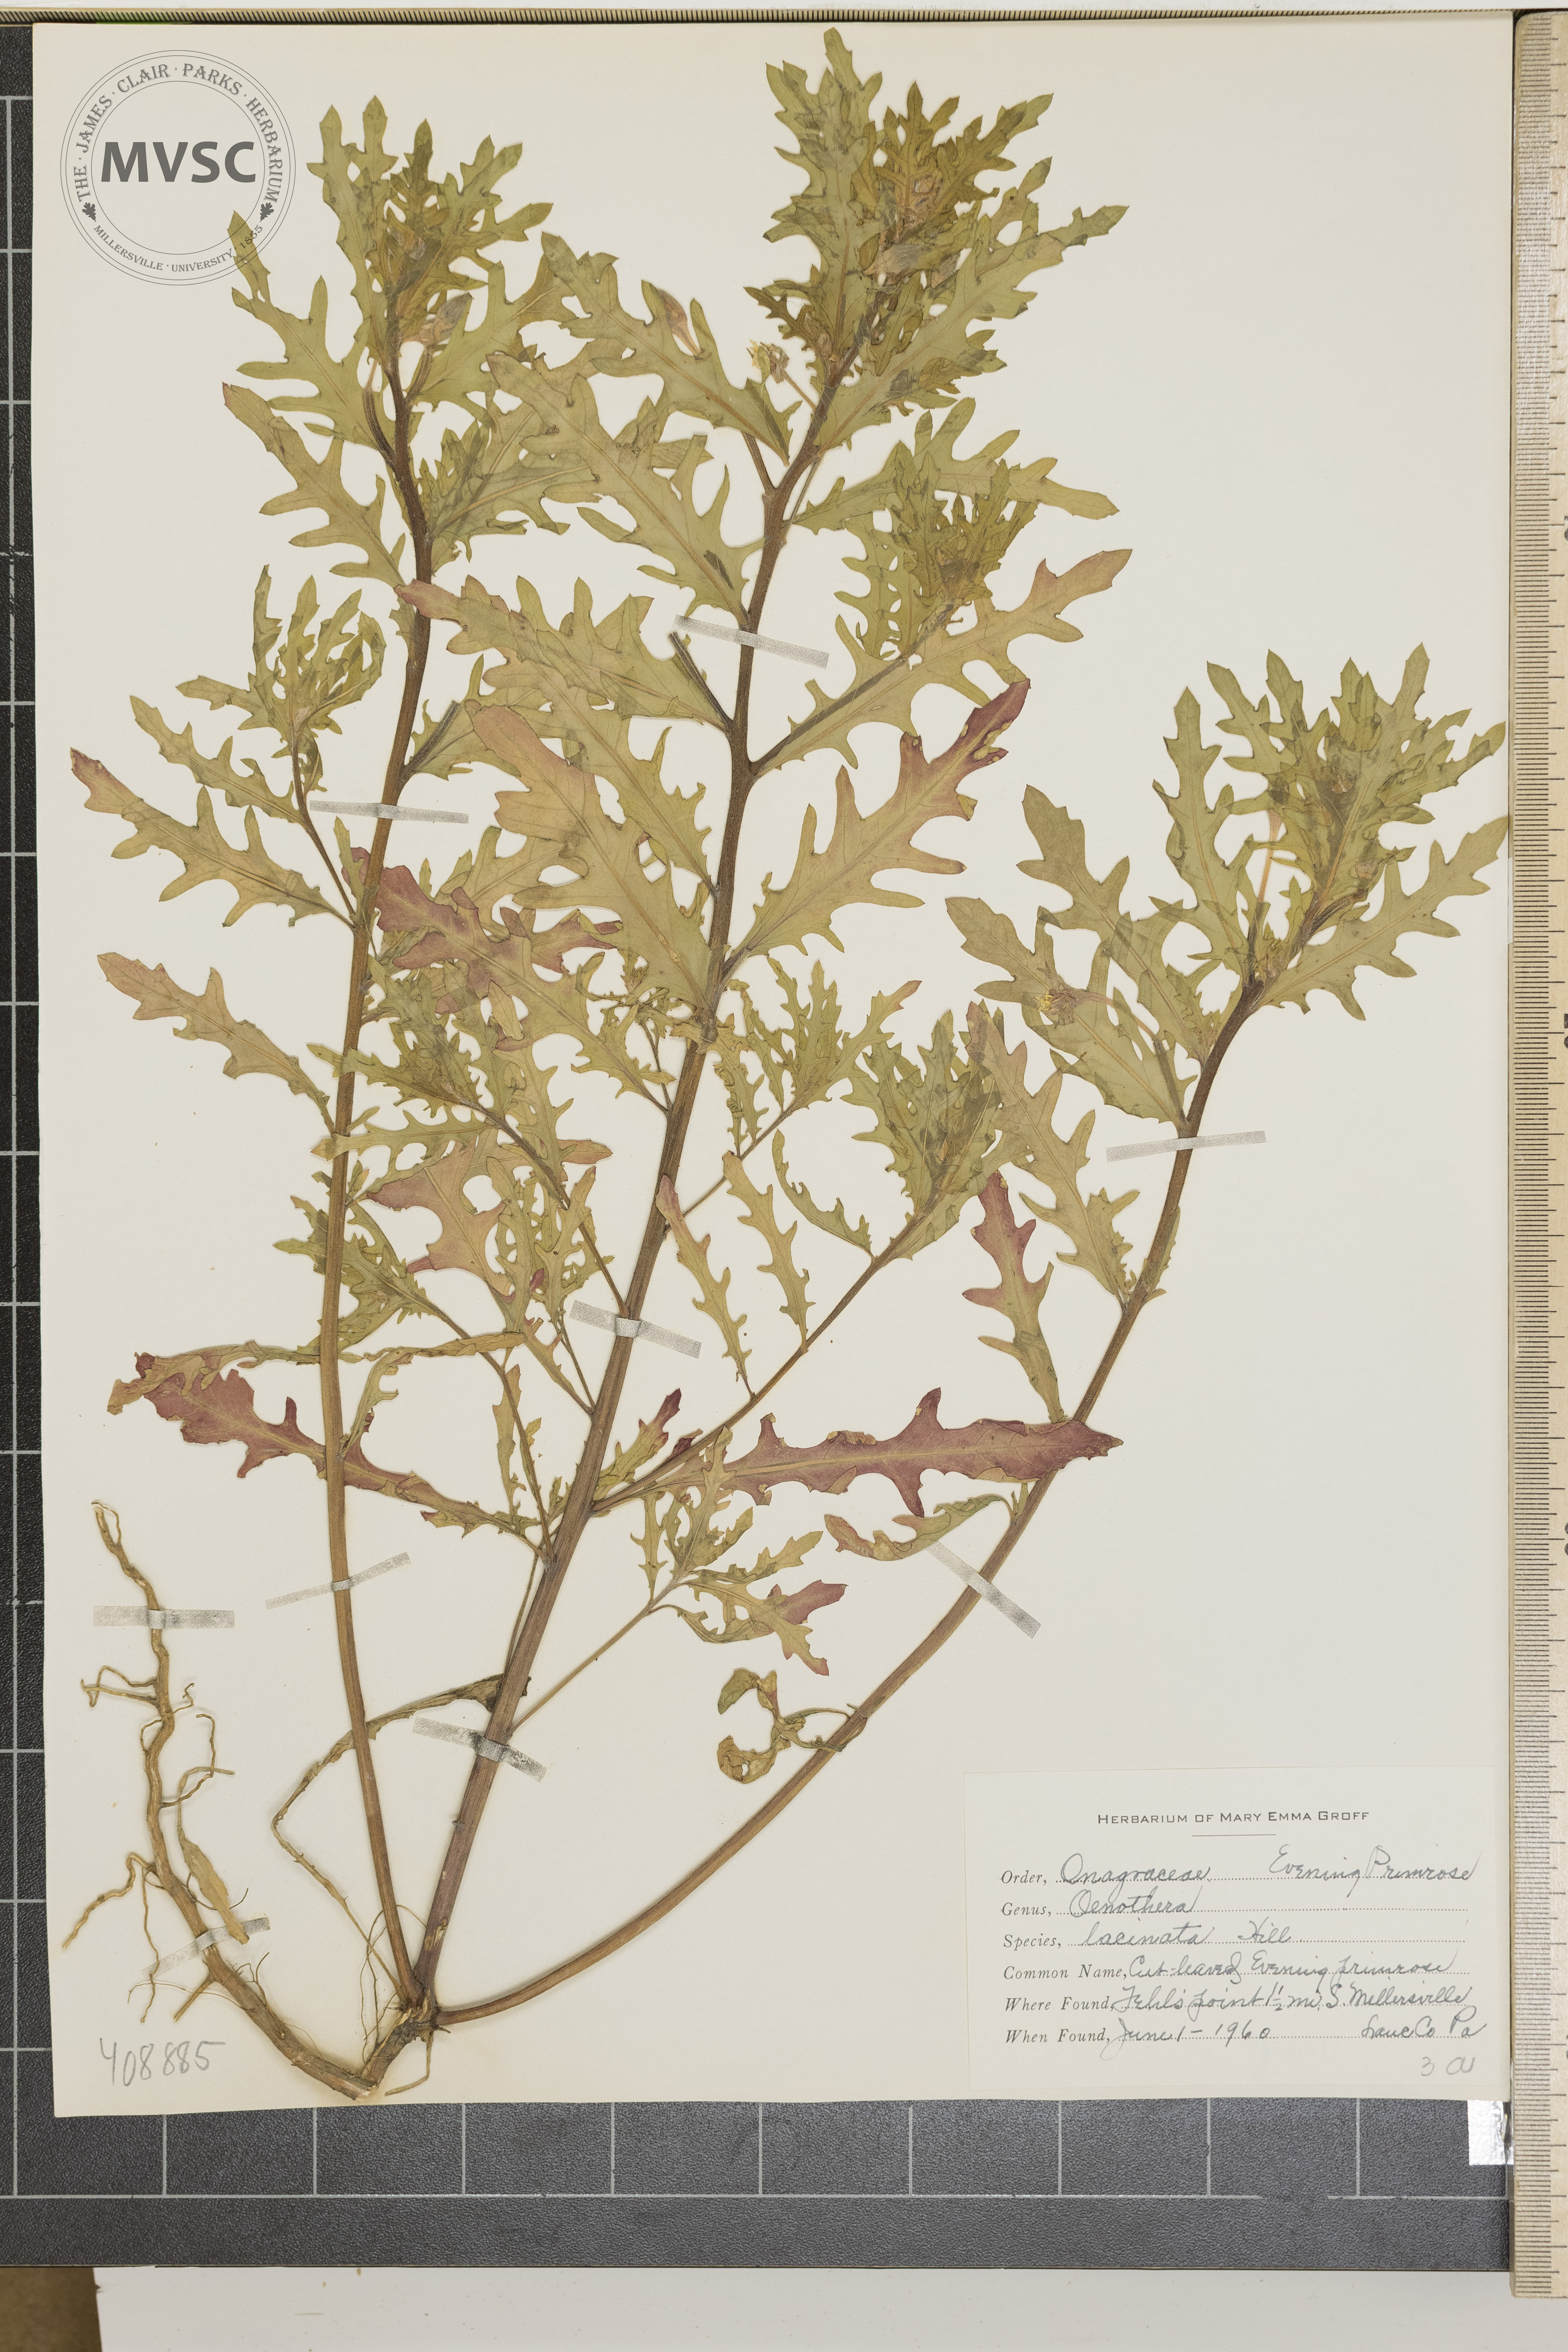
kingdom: Plantae
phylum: Tracheophyta
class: Magnoliopsida
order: Myrtales
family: Onagraceae
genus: Oenothera
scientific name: Oenothera laciniata
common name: cut-leaved evening-primrose
